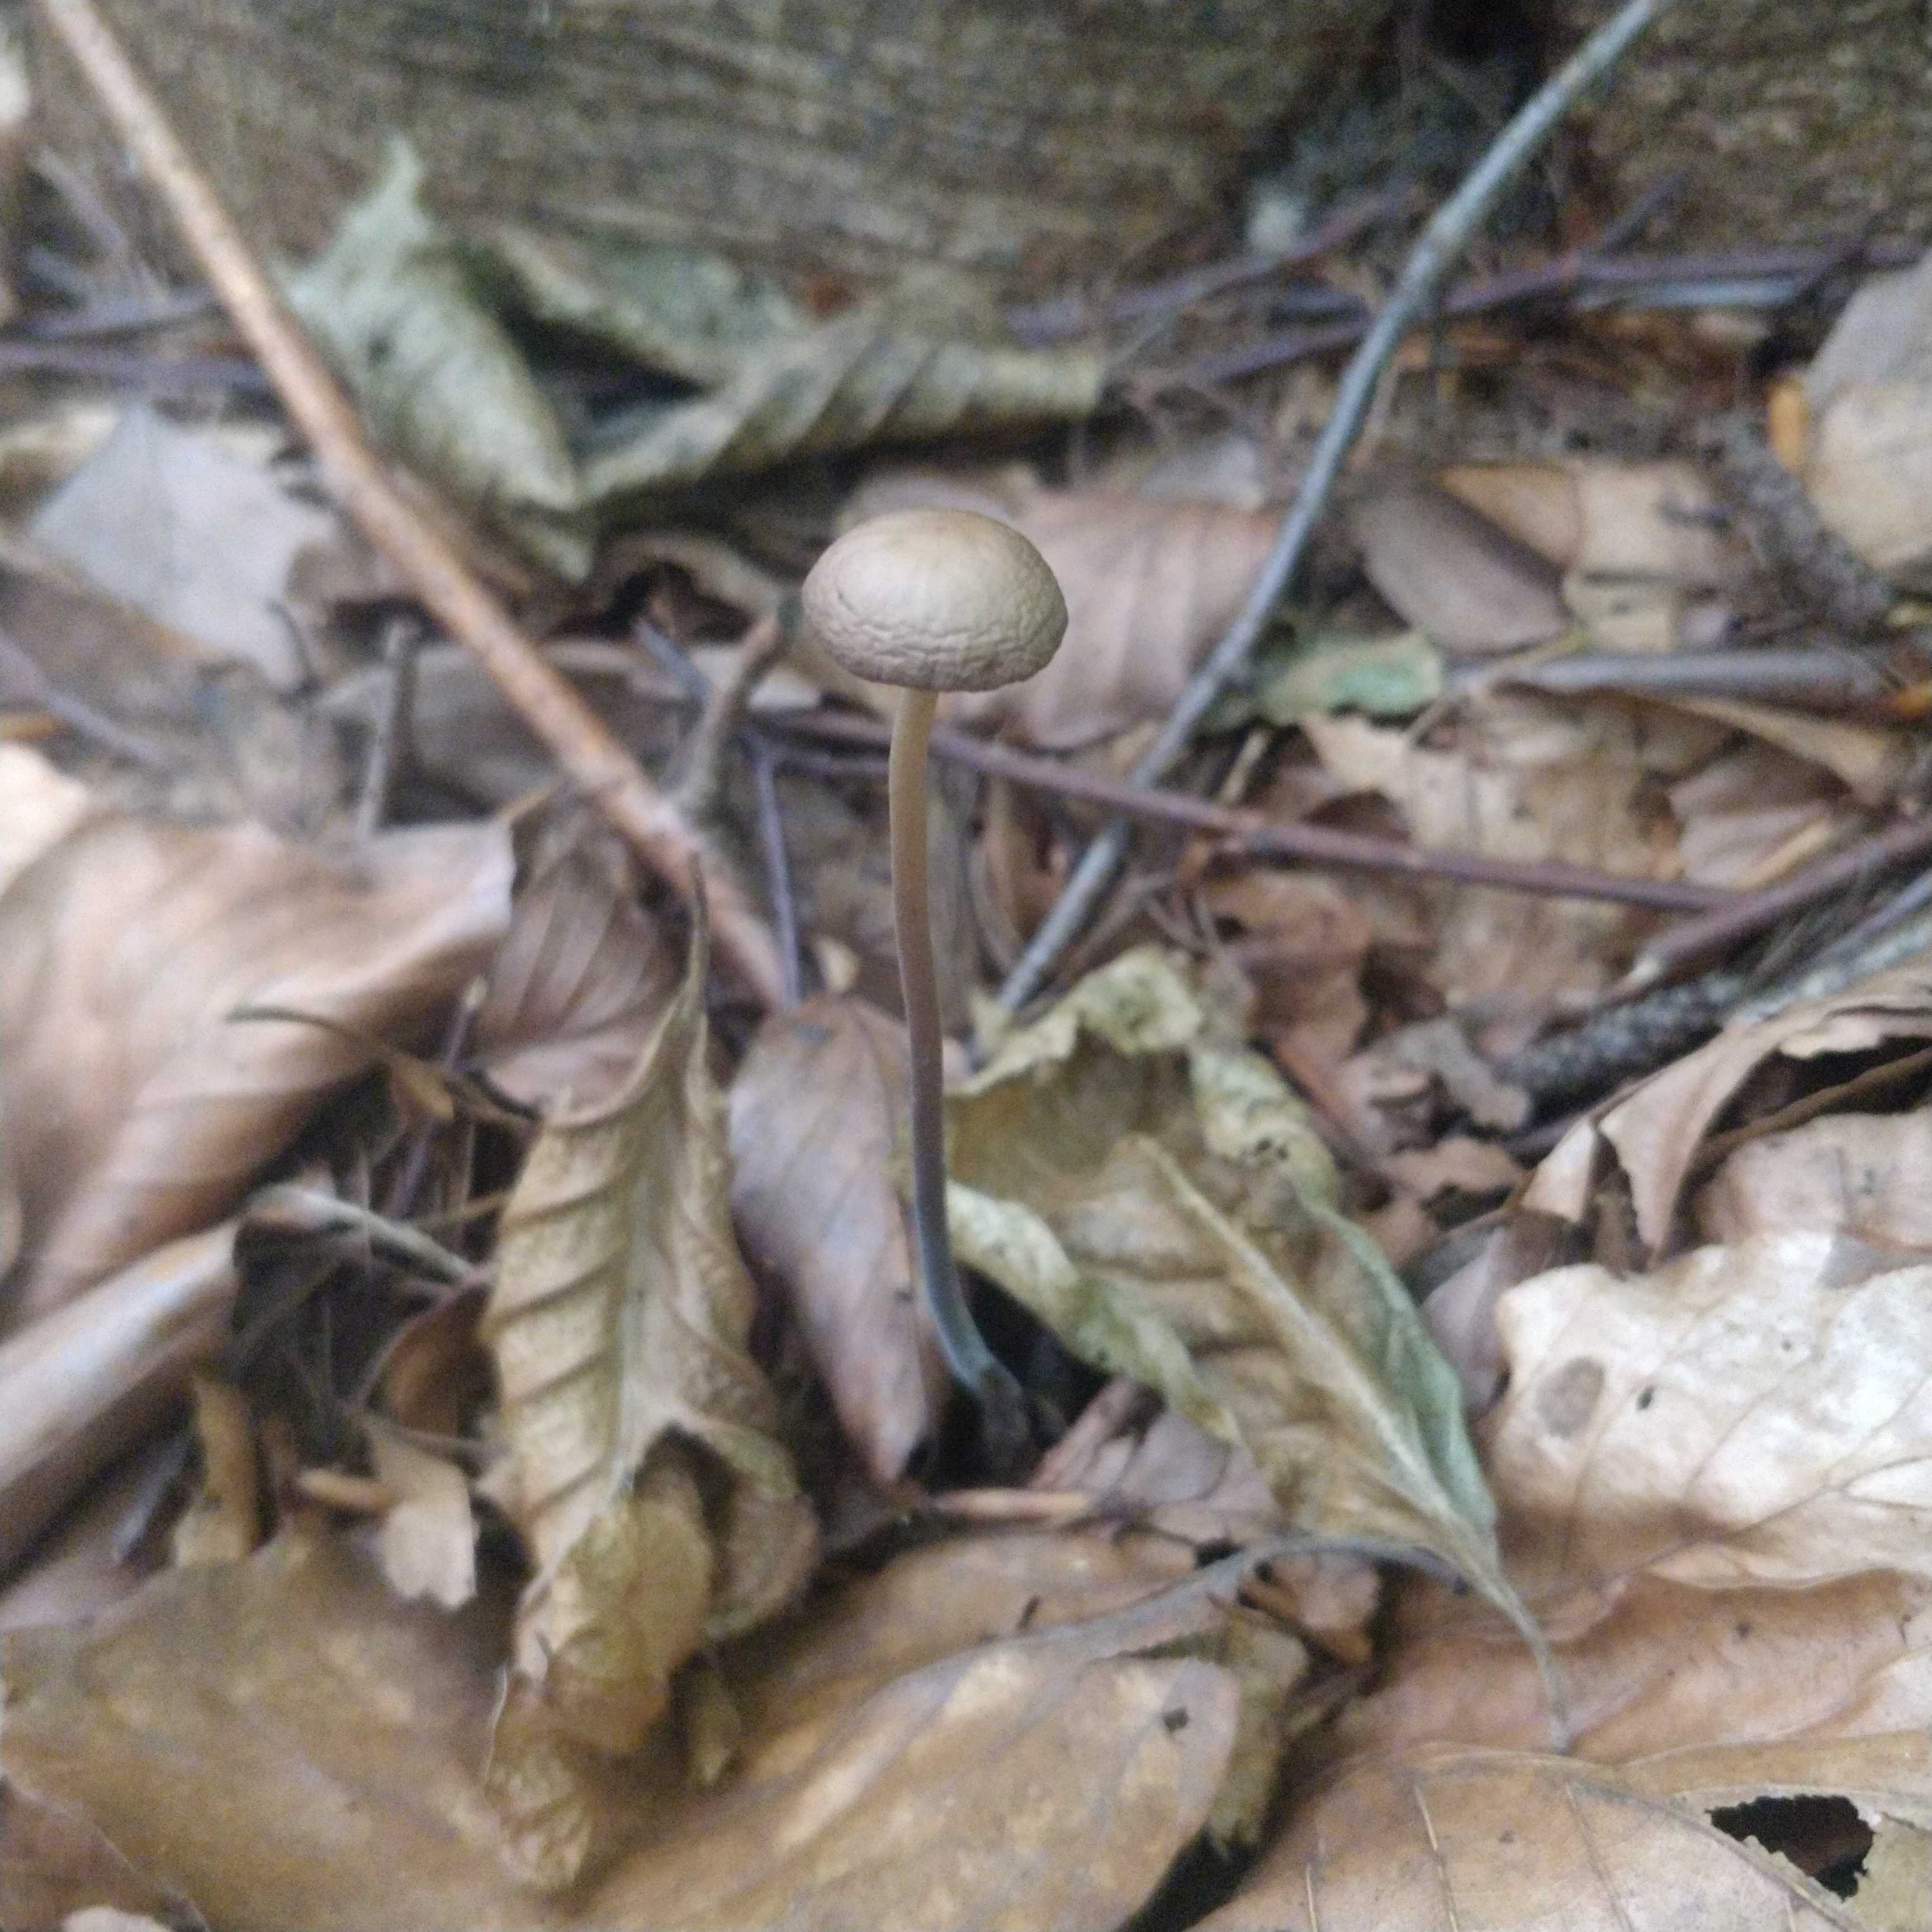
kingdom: Fungi
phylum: Basidiomycota
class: Agaricomycetes
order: Agaricales
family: Omphalotaceae
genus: Mycetinis
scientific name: Mycetinis alliaceus
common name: stor løghat
